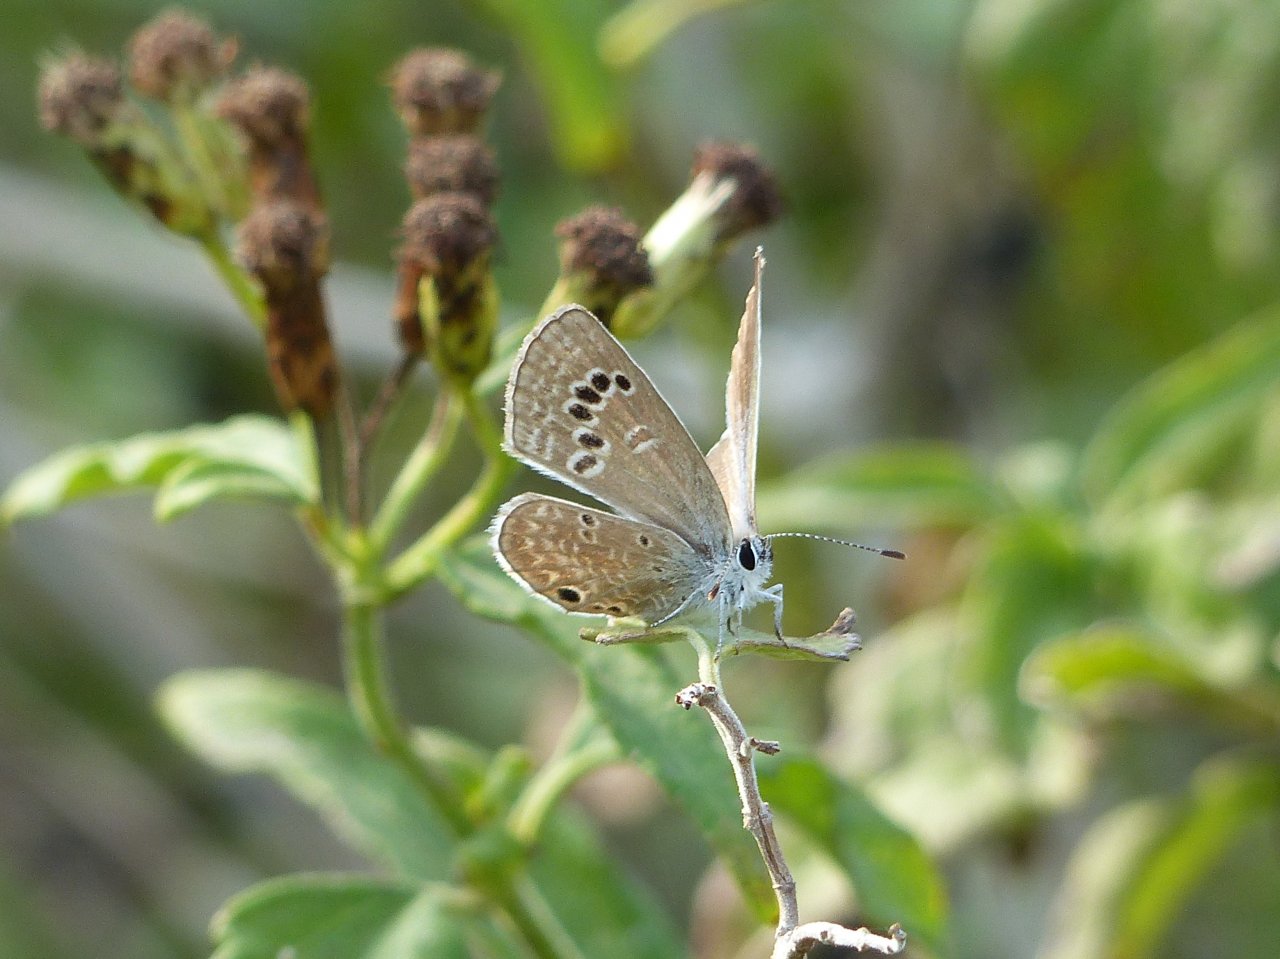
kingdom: Animalia
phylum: Arthropoda
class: Insecta
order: Lepidoptera
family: Lycaenidae
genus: Echinargus
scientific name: Echinargus isola
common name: Reakirt's Blue
